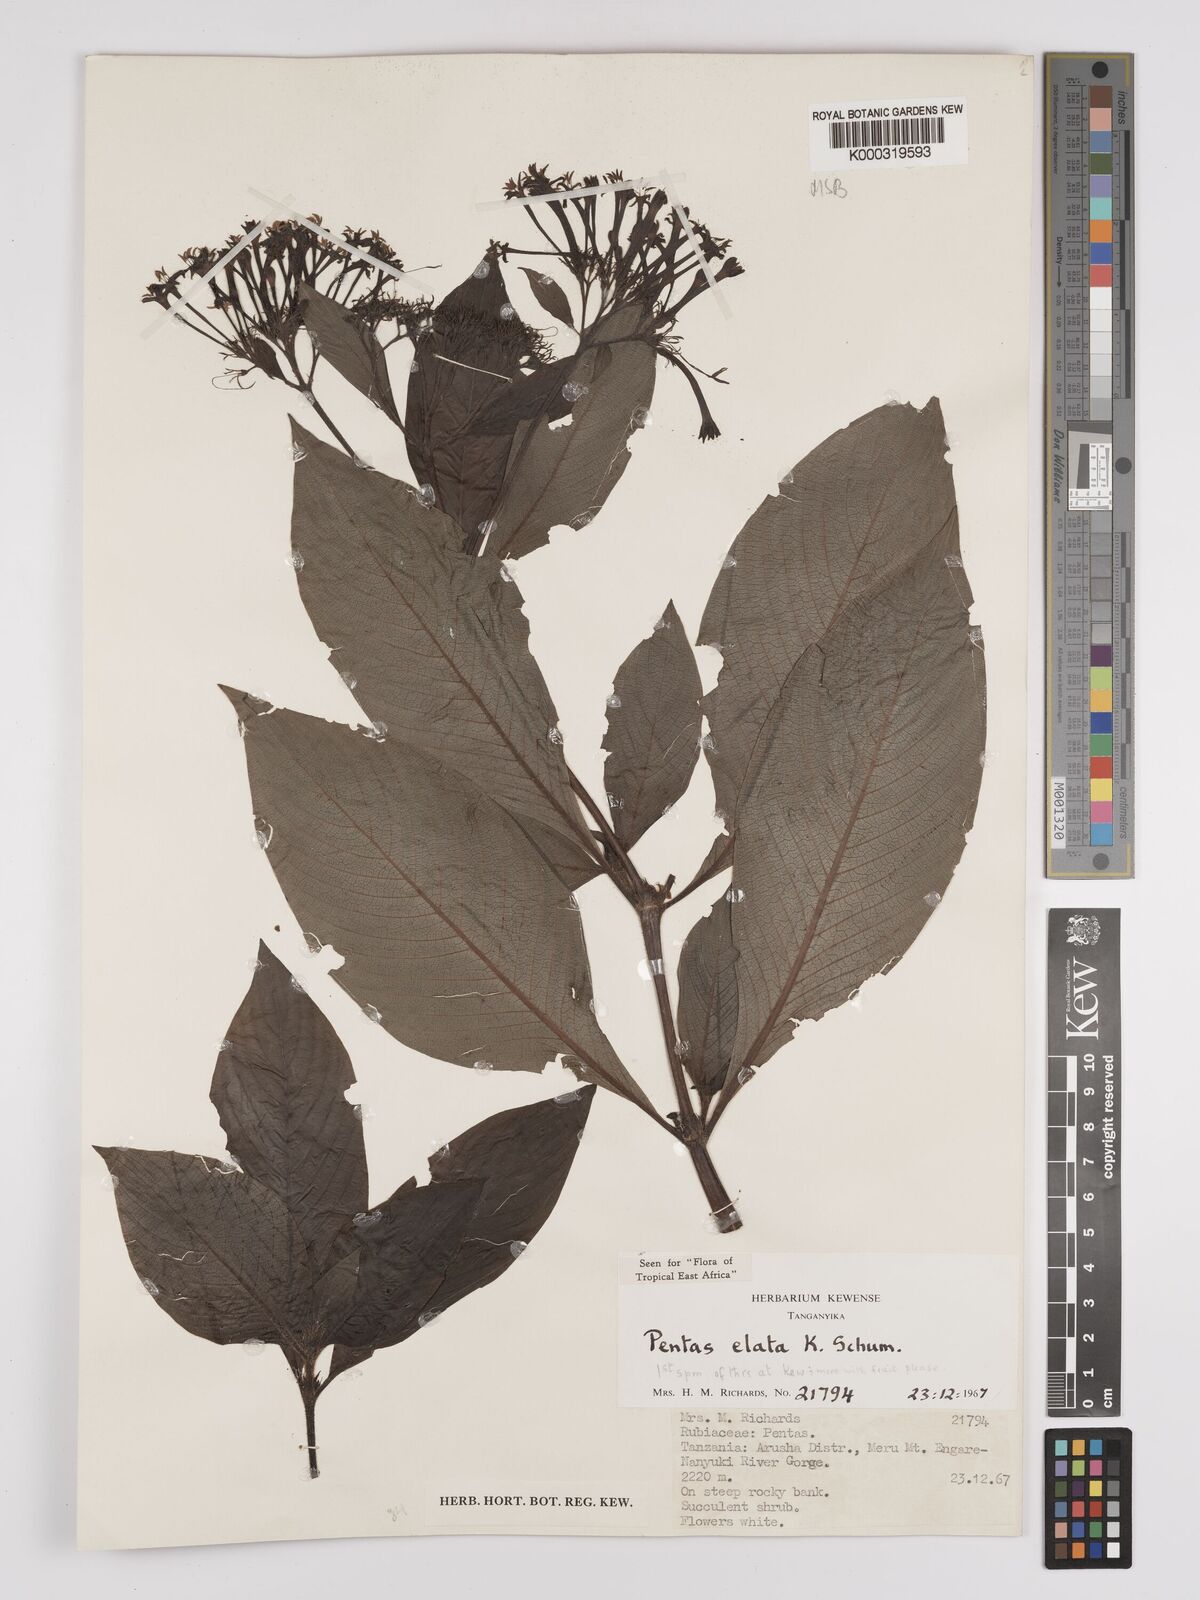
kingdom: Plantae
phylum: Tracheophyta
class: Magnoliopsida
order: Gentianales
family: Rubiaceae
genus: Phyllopentas
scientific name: Phyllopentas elata
